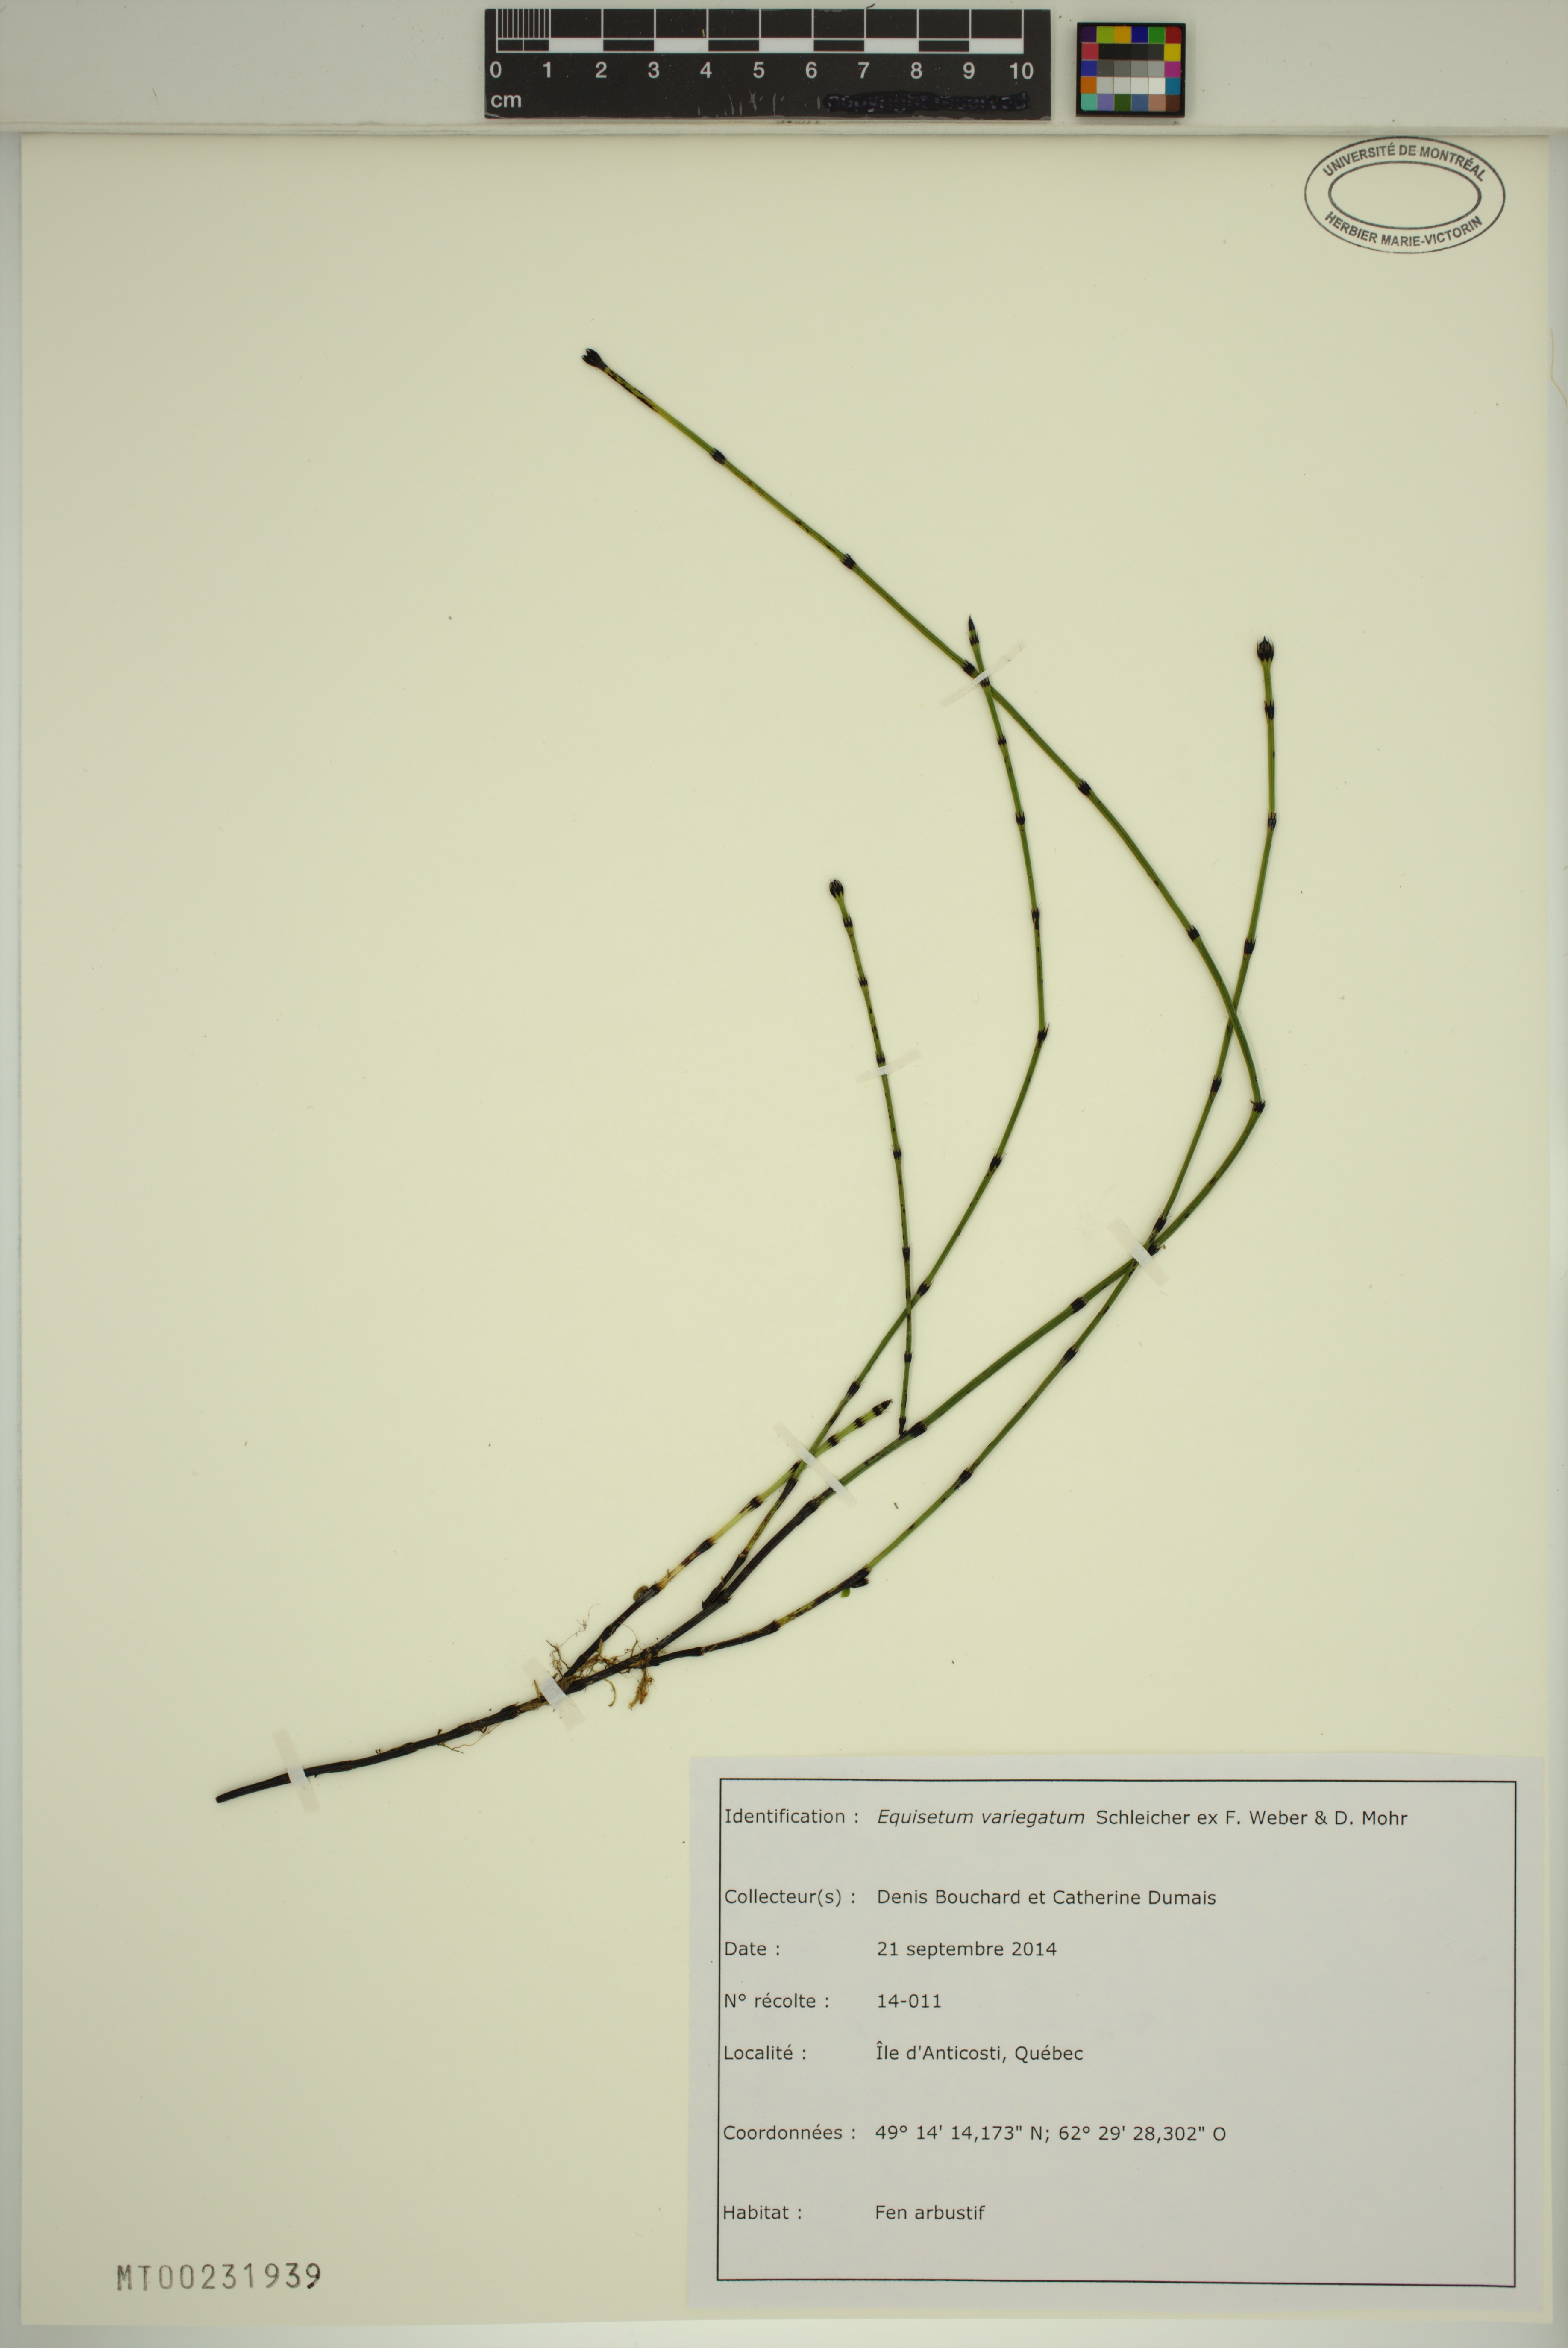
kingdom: Plantae
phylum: Tracheophyta
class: Polypodiopsida
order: Equisetales
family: Equisetaceae
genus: Equisetum
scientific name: Equisetum variegatum
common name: Variegated horsetail
